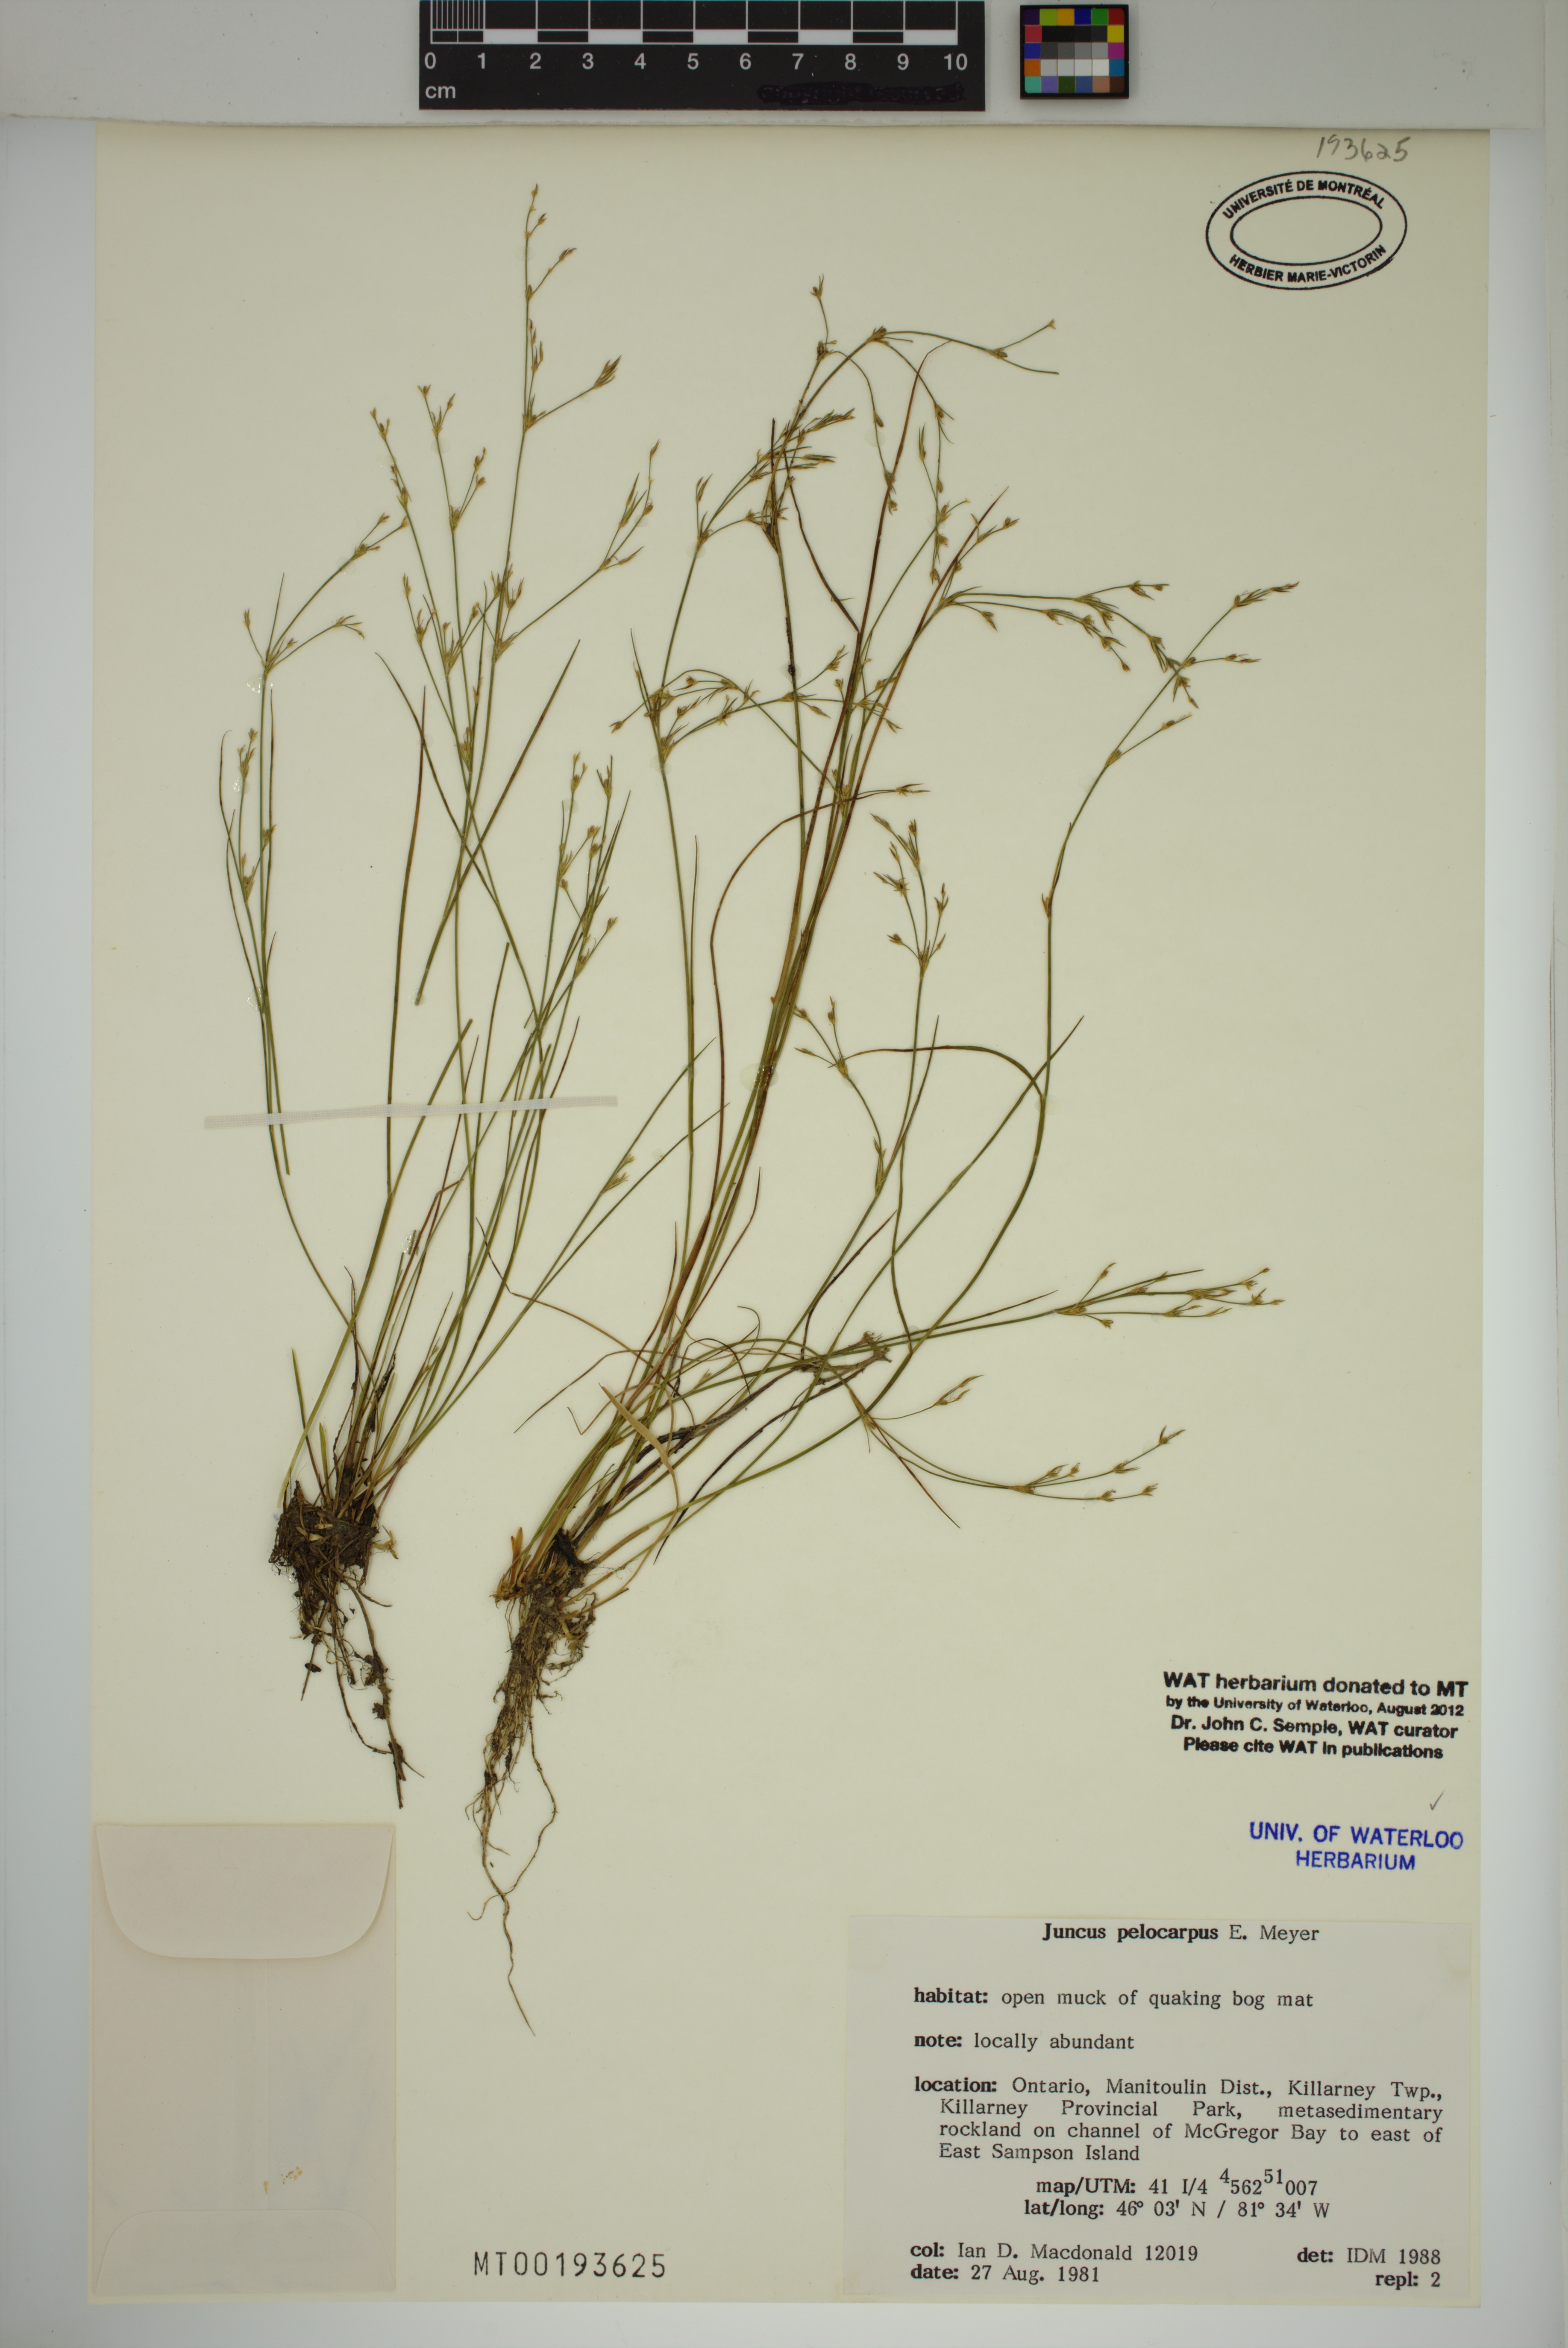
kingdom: Plantae
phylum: Tracheophyta
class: Liliopsida
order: Poales
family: Juncaceae
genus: Juncus
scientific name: Juncus pelocarpus
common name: Brown-fruited rush
